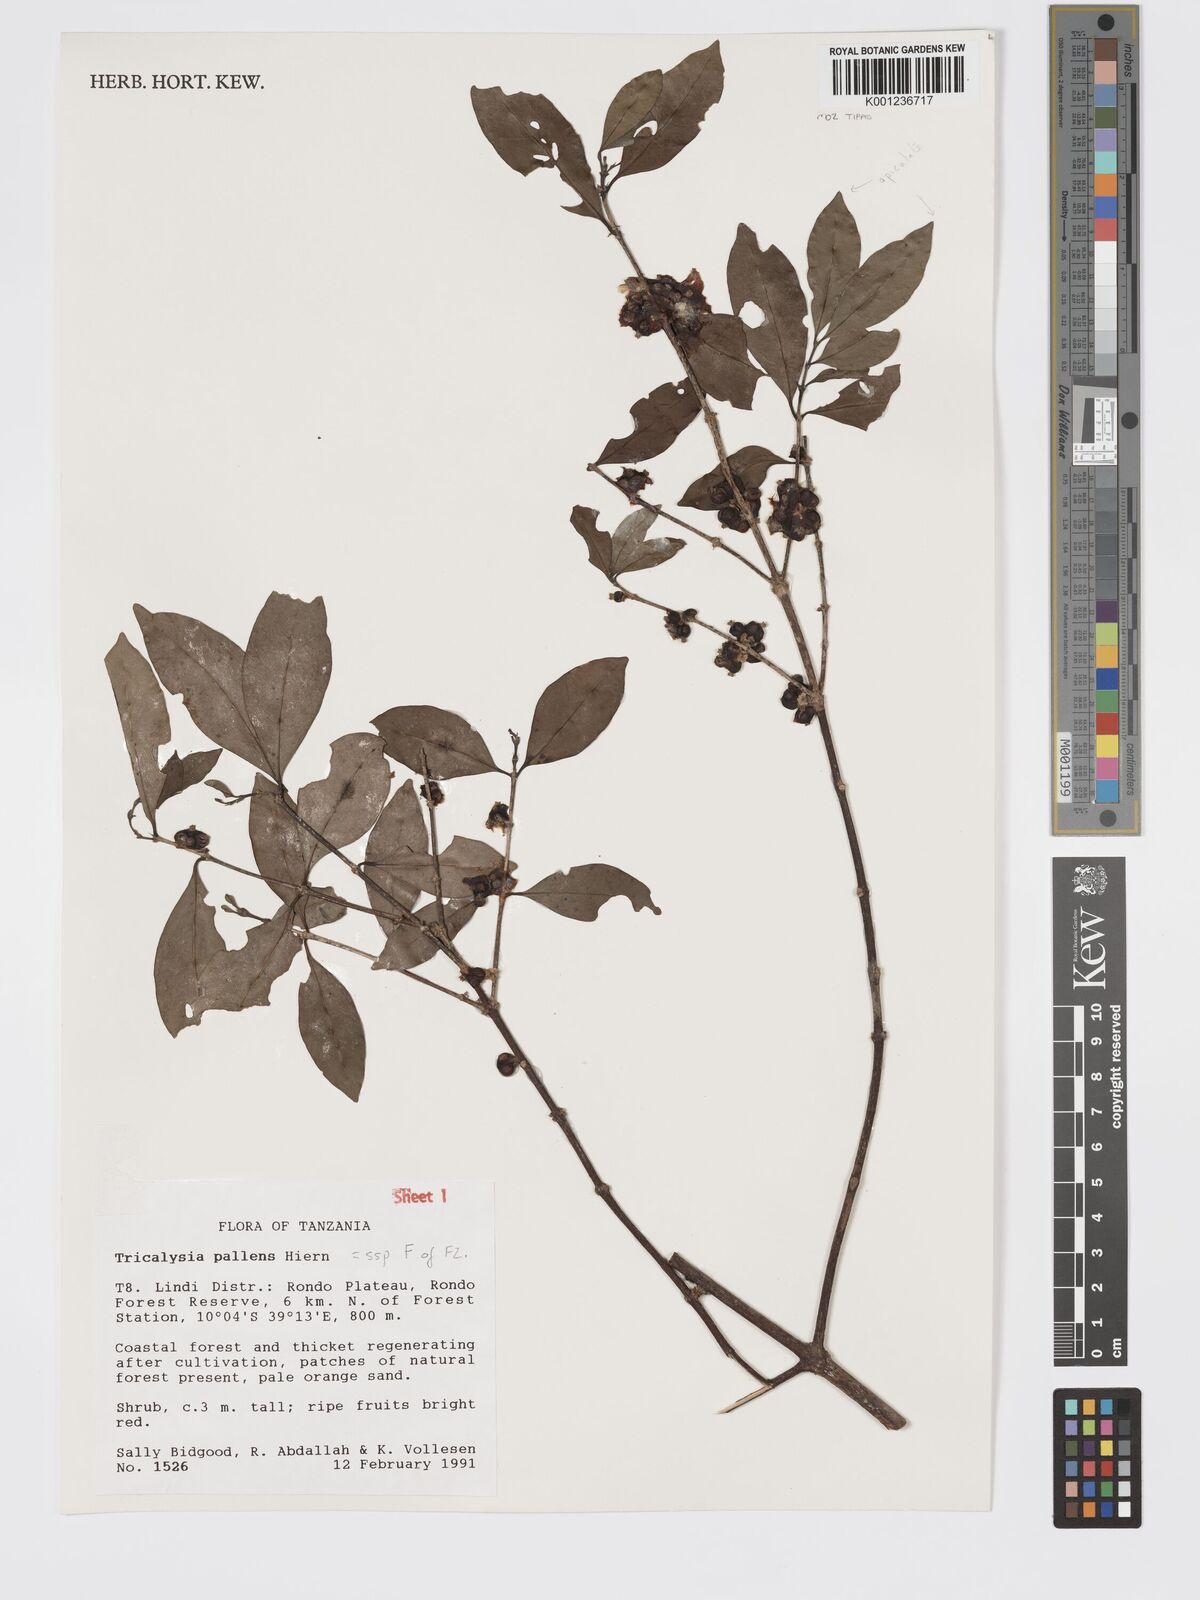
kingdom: Plantae
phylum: Tracheophyta
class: Magnoliopsida
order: Gentianales
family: Rubiaceae
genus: Tricalysia
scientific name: Tricalysia pallens
